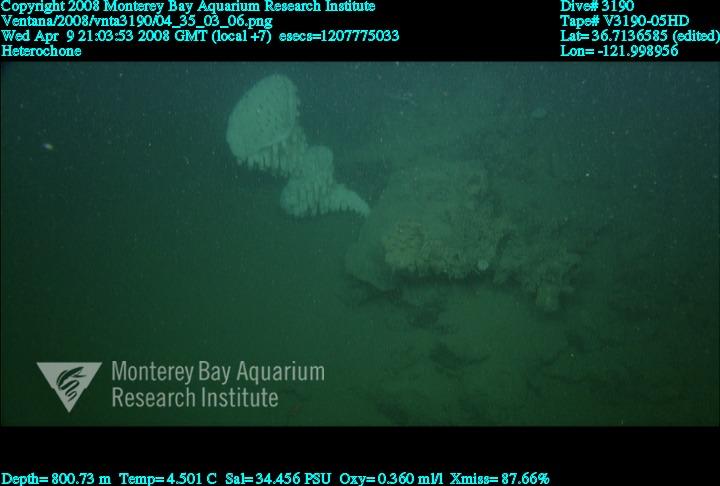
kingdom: Animalia
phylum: Porifera
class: Hexactinellida
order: Sceptrulophora
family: Aphrocallistidae
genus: Heterochone
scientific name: Heterochone
